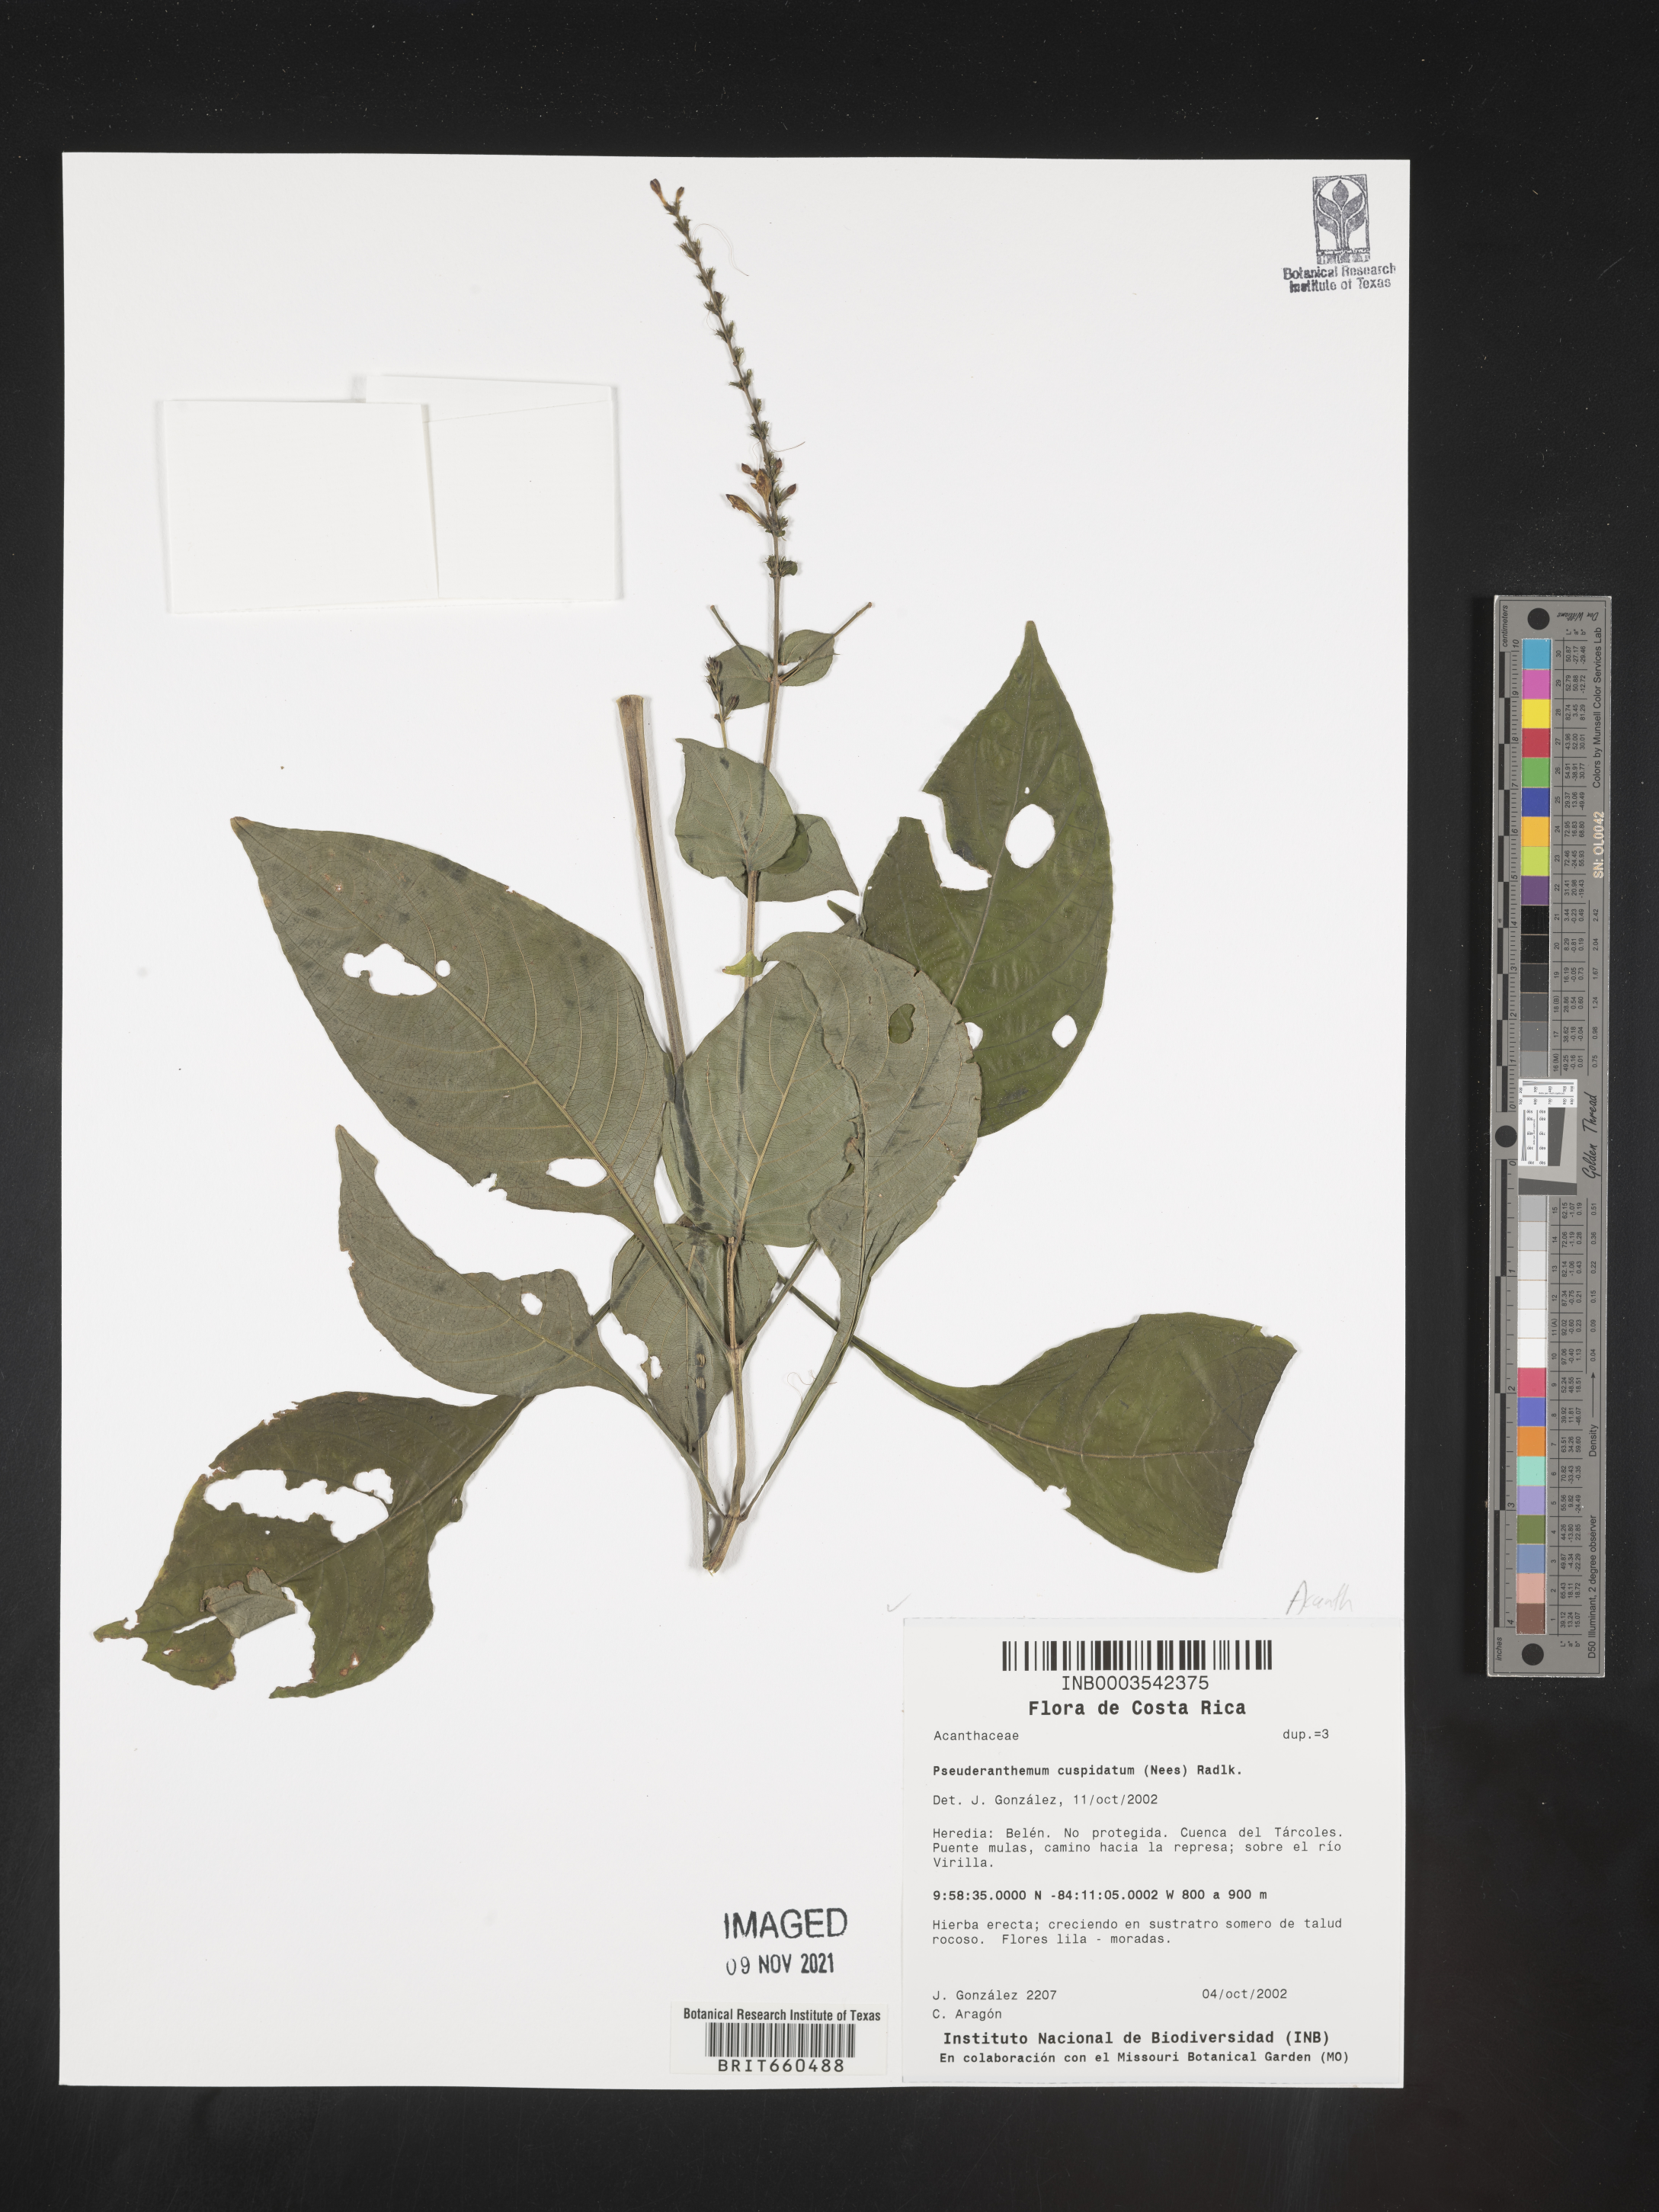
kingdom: Plantae
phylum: Tracheophyta
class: Magnoliopsida
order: Lamiales
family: Acanthaceae
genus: Pseuderanthemum
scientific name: Pseuderanthemum
